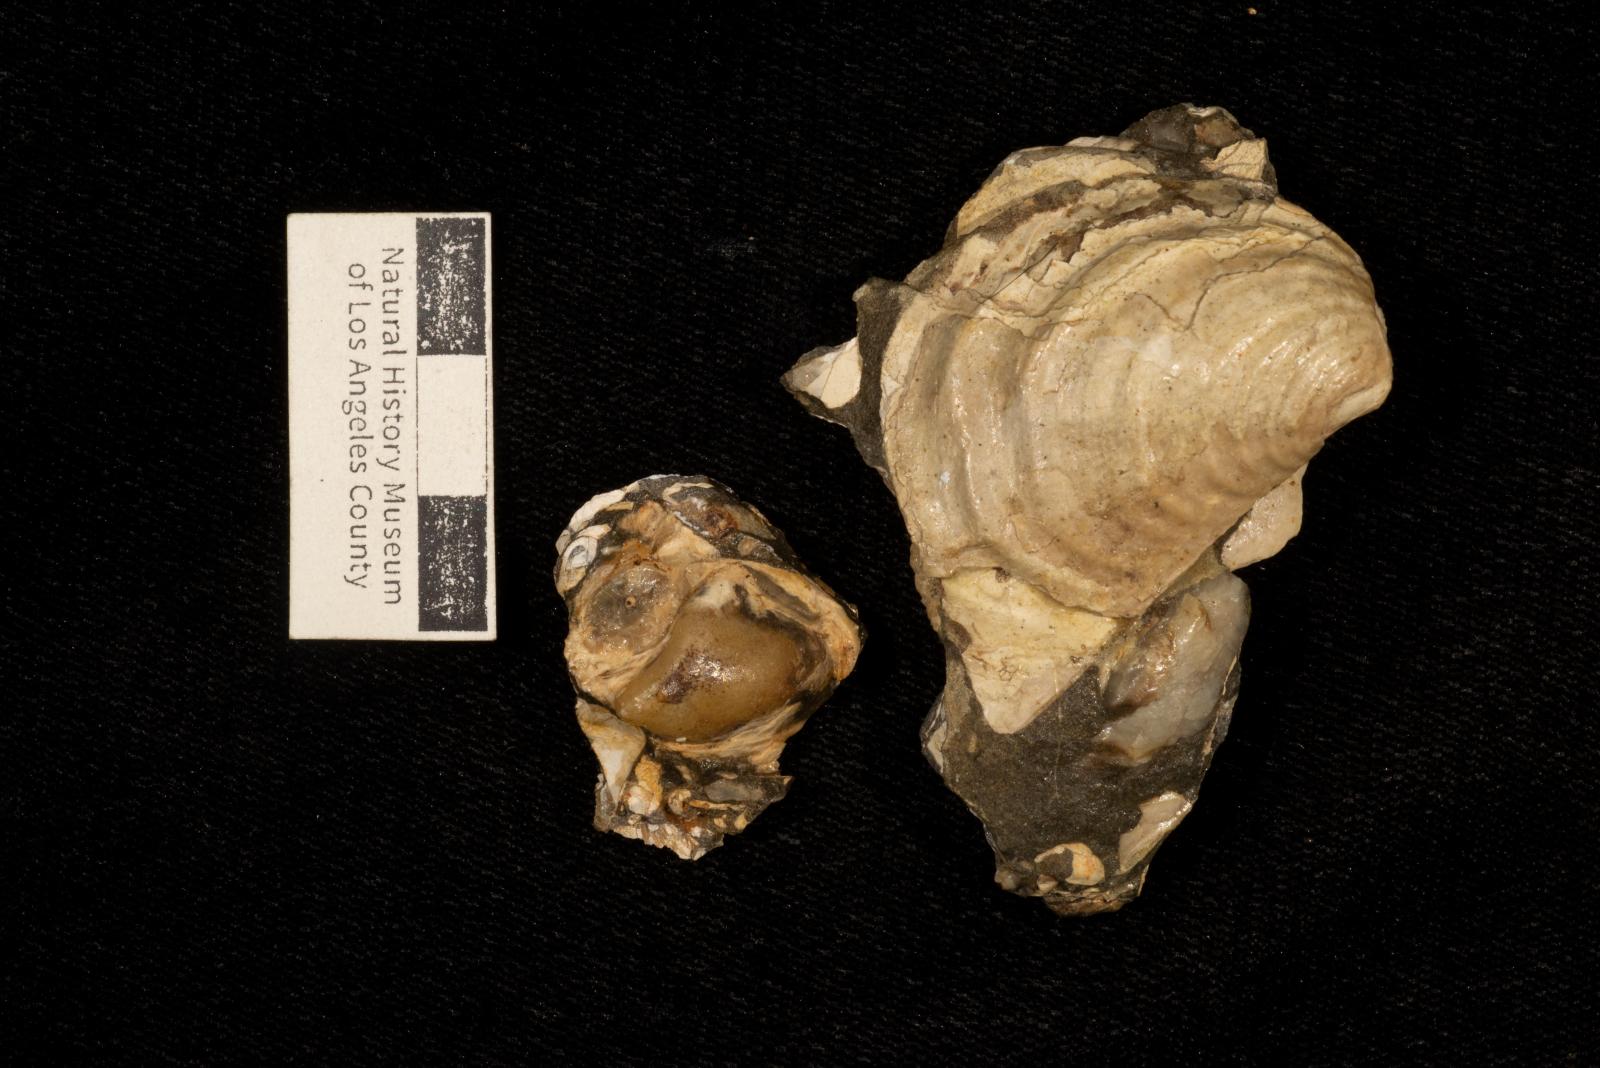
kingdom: Animalia
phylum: Mollusca
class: Bivalvia
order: Myalinida
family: Inoceramidae
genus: Inoceramus
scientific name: Inoceramus
